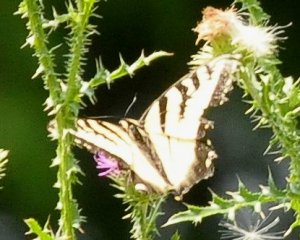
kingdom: Animalia
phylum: Arthropoda
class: Insecta
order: Lepidoptera
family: Papilionidae
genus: Pterourus
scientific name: Pterourus glaucus
